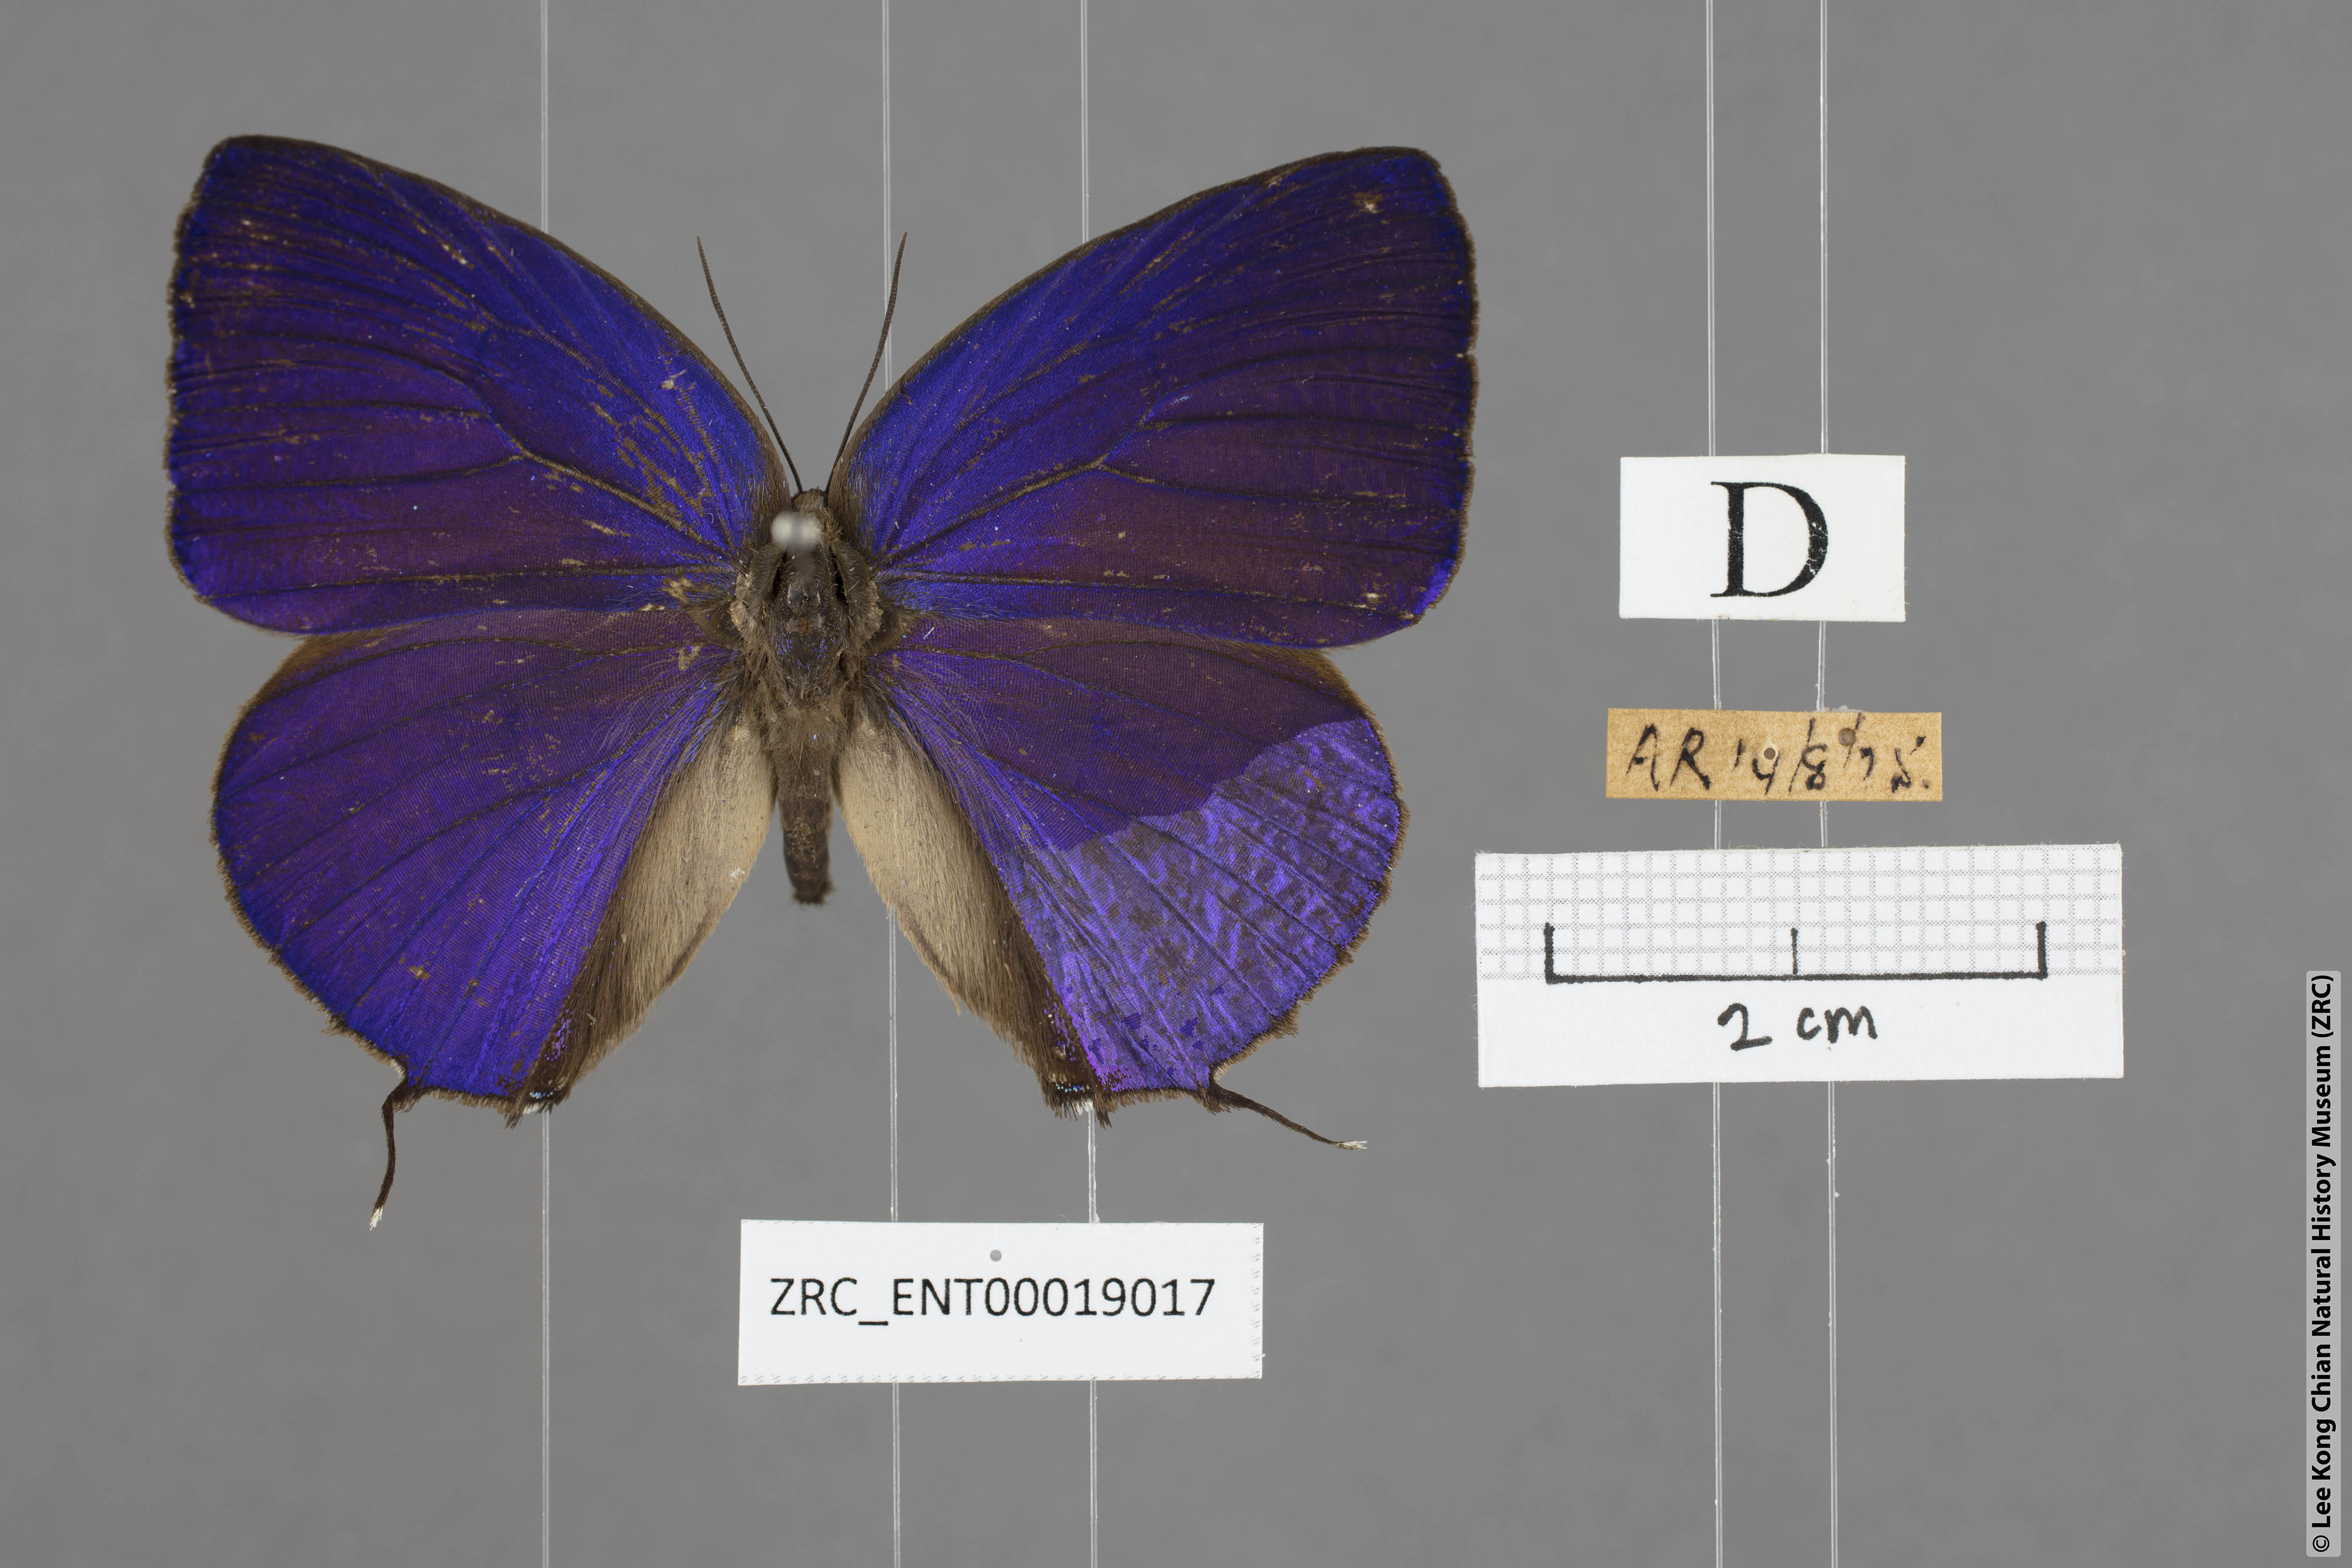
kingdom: Animalia
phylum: Arthropoda
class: Insecta
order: Lepidoptera
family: Lycaenidae
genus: Arhopala
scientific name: Arhopala aedias
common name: Large metallic oakblue
